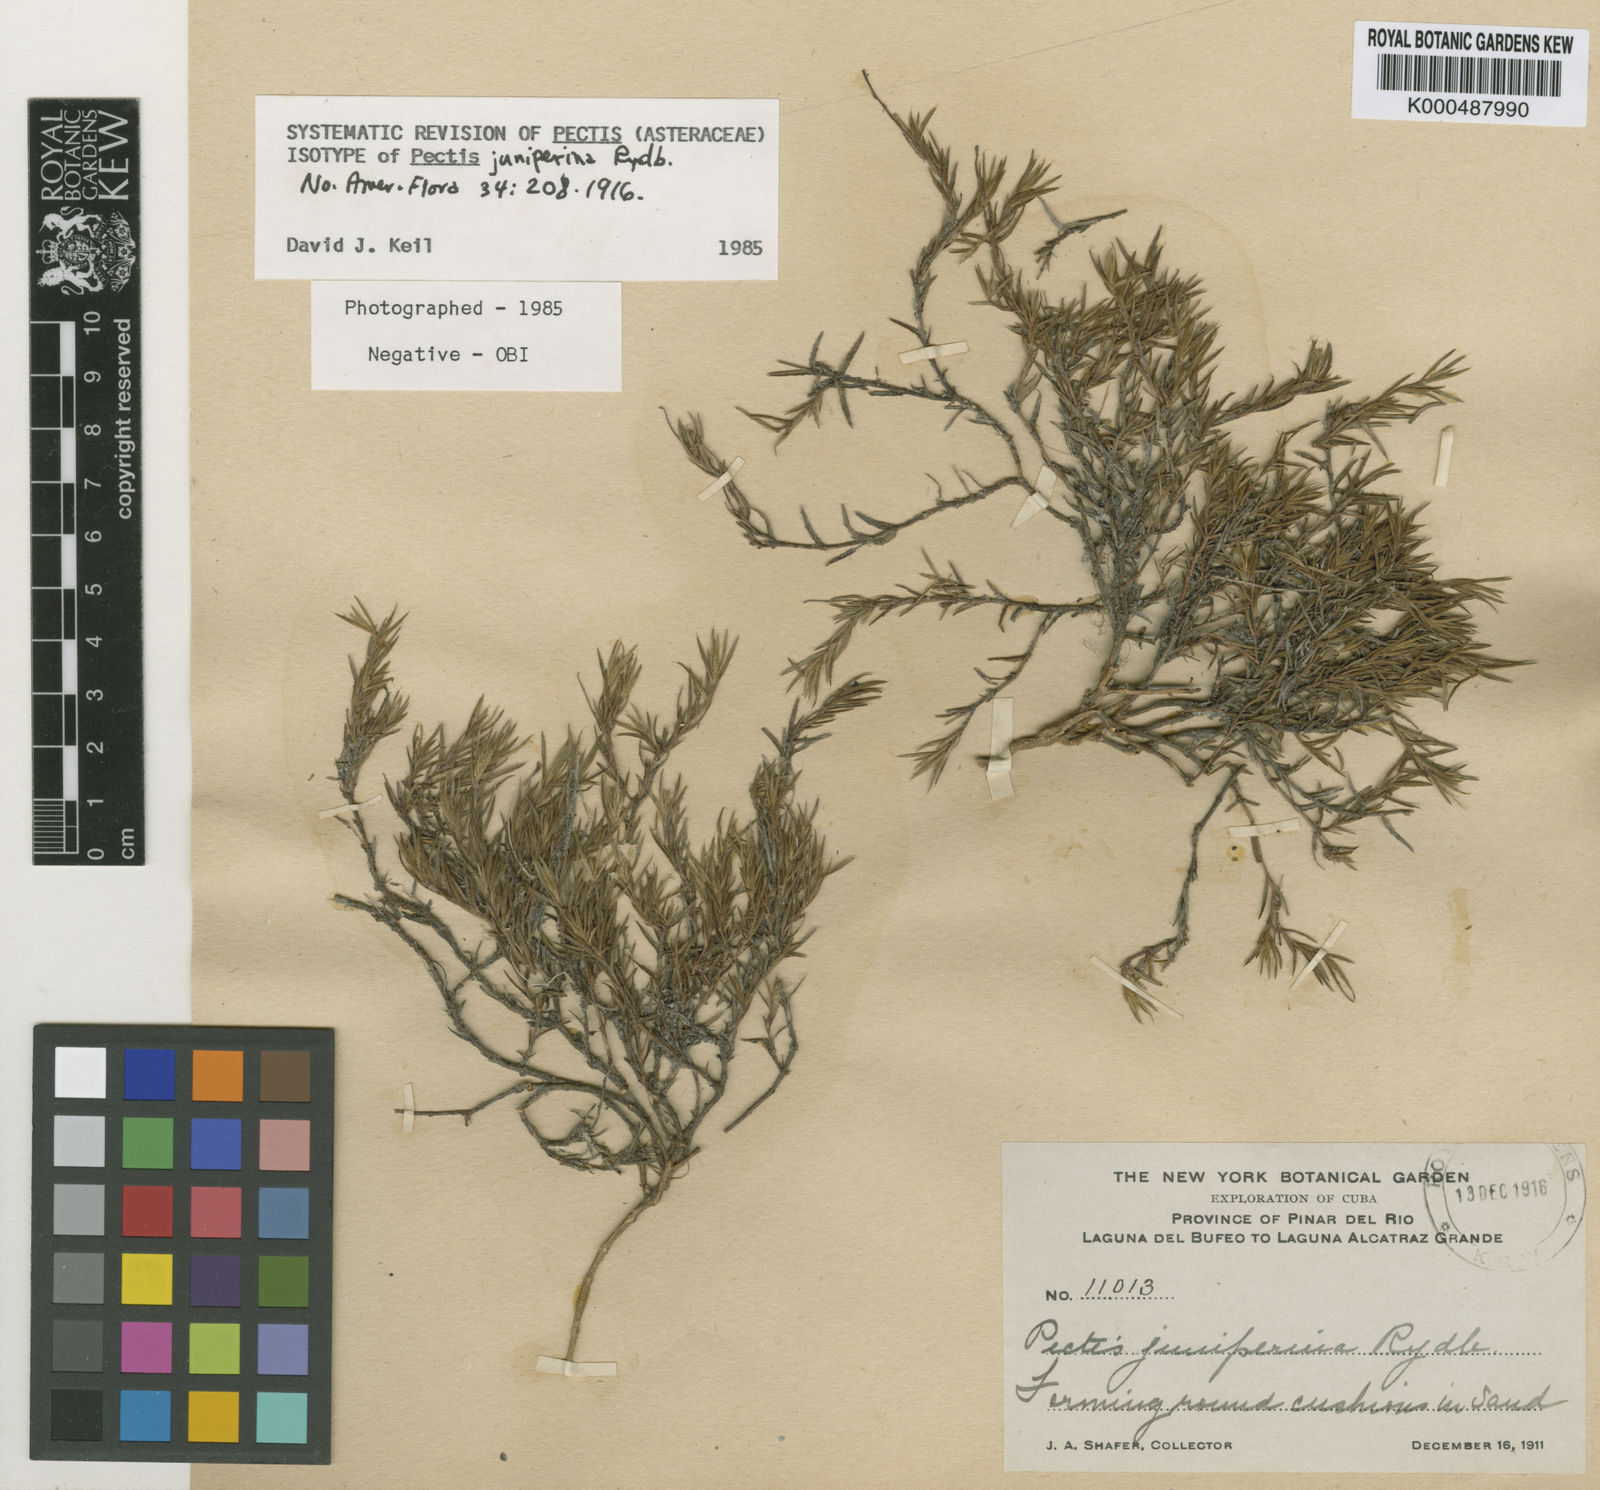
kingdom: Plantae
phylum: Tracheophyta
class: Magnoliopsida
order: Asterales
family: Asteraceae
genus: Pectis
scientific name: Pectis juniperina
